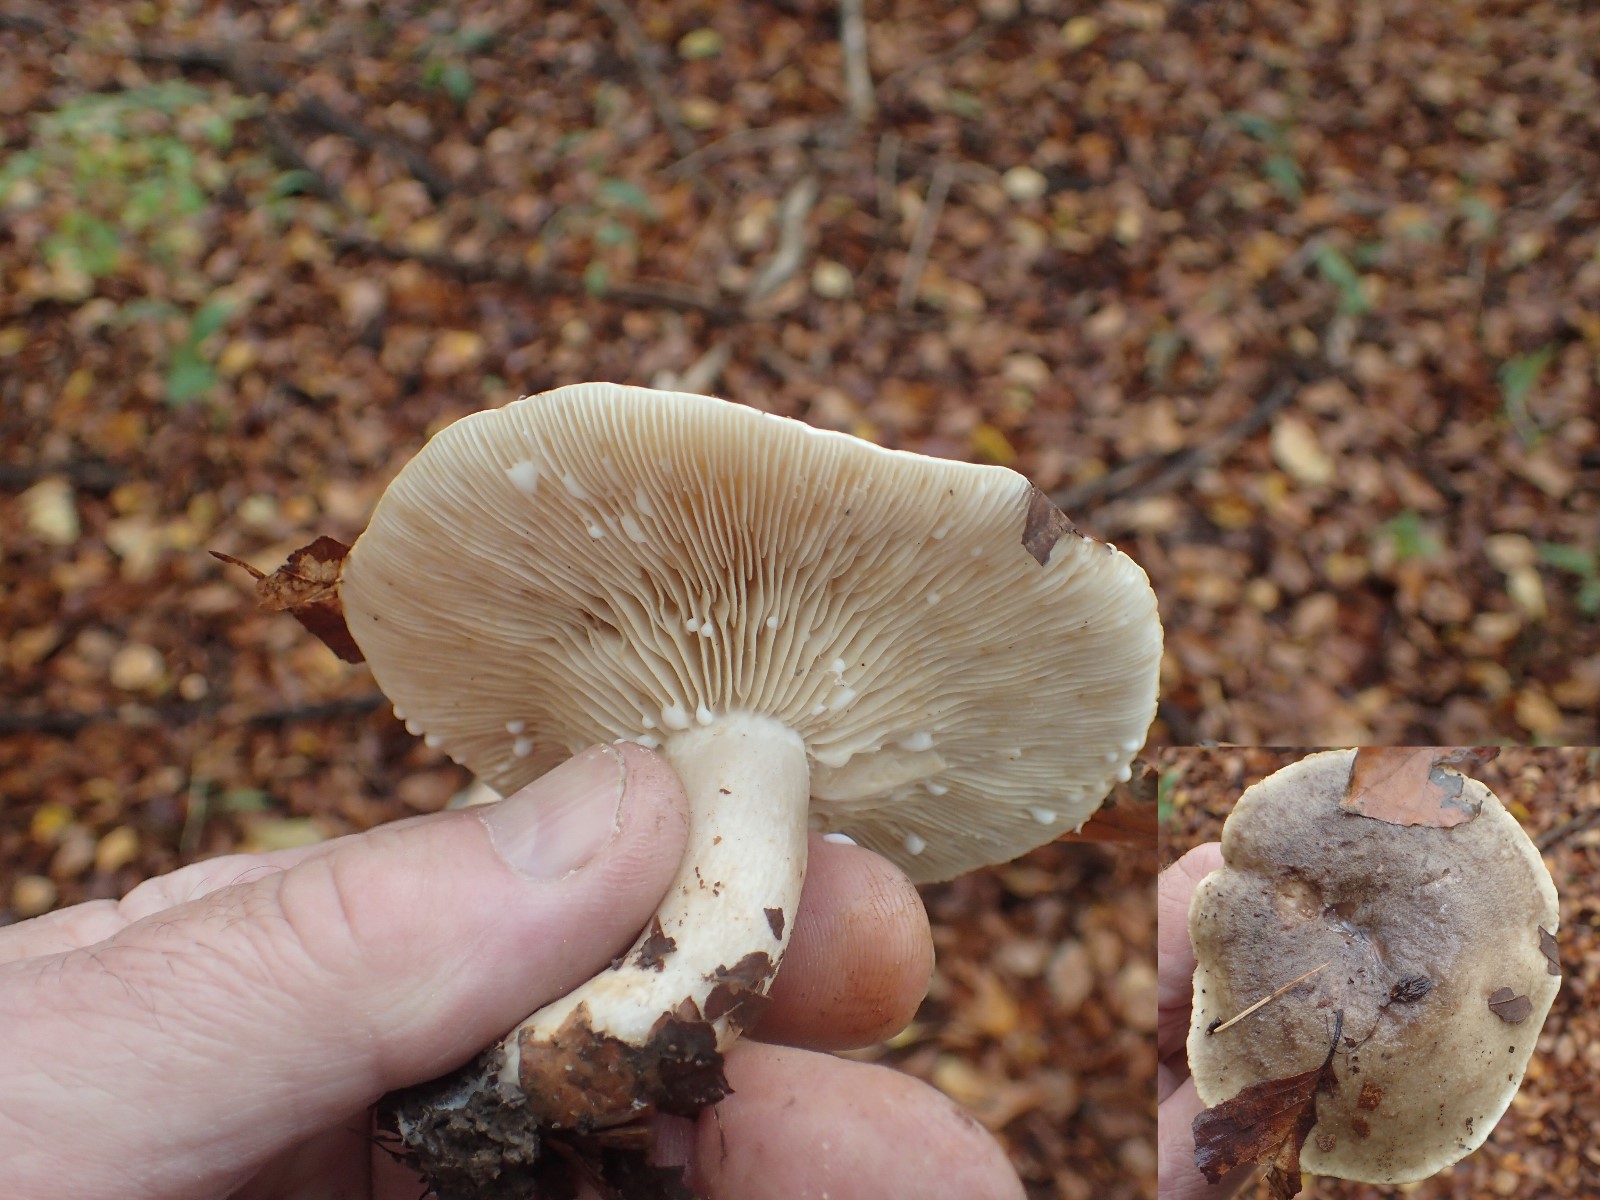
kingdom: Fungi
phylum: Basidiomycota
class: Agaricomycetes
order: Russulales
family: Russulaceae
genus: Lactarius
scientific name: Lactarius fluens
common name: lysrandet mælkehat
